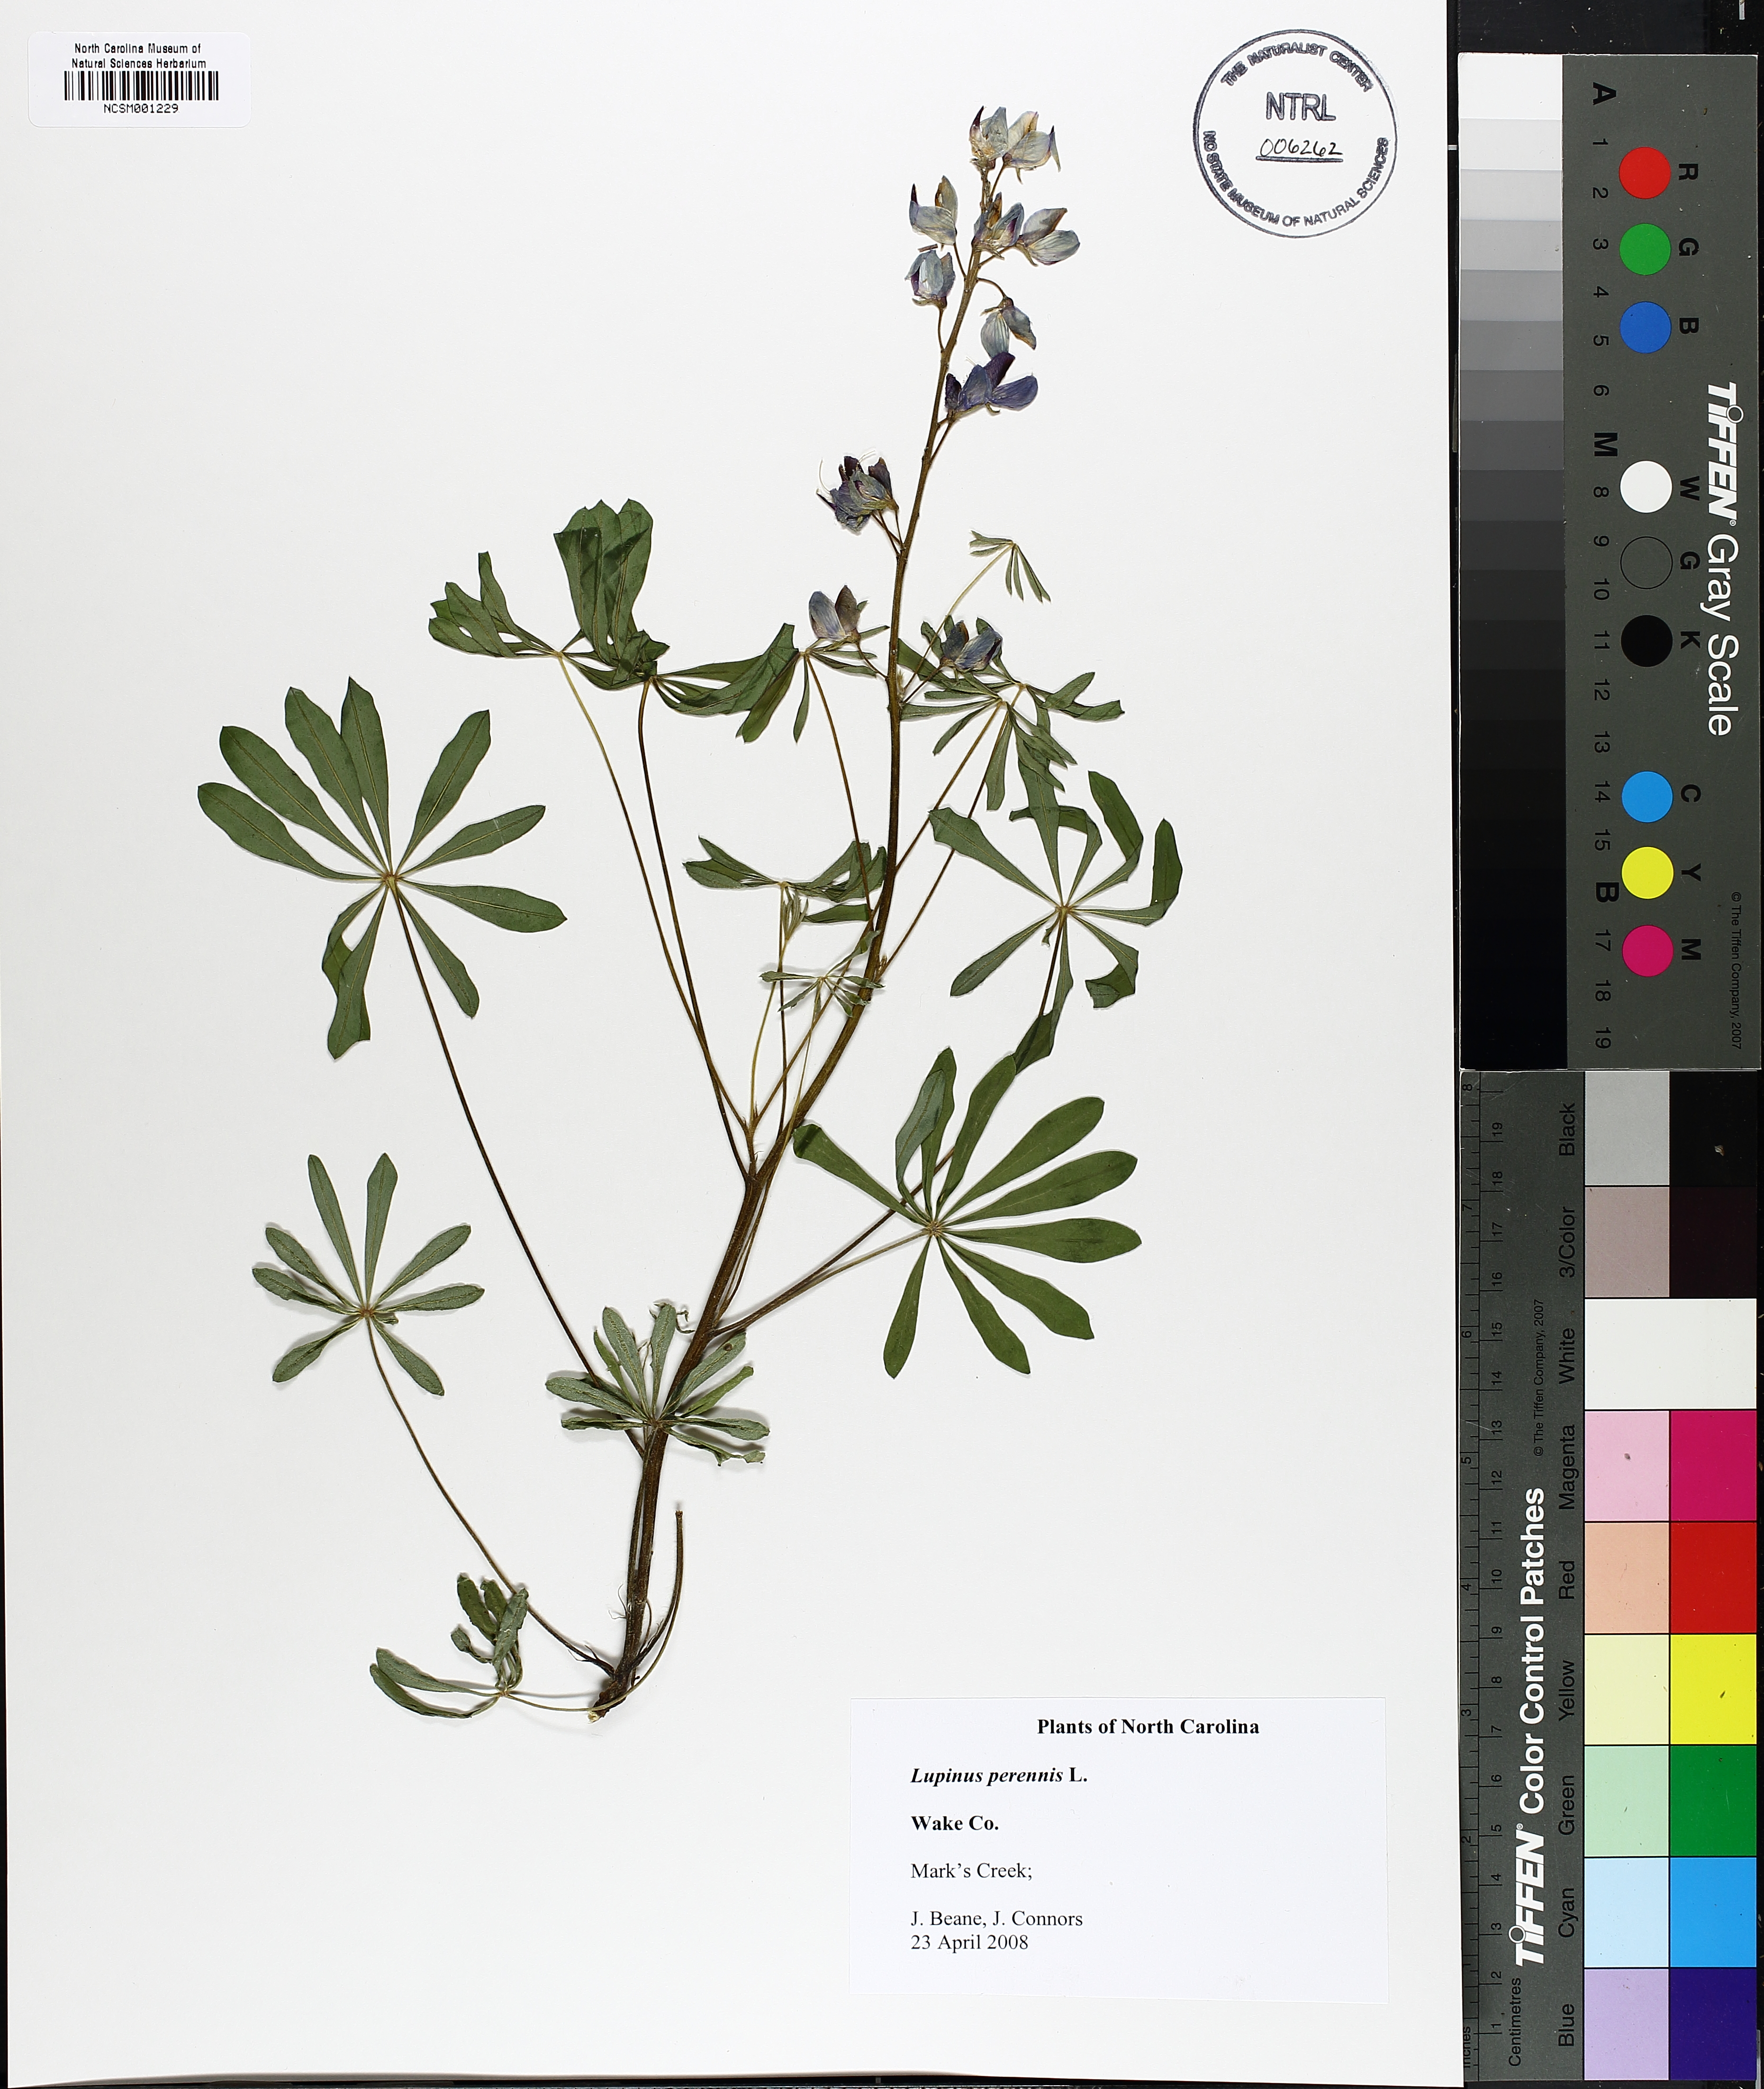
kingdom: Plantae
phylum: Tracheophyta
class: Magnoliopsida
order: Fabales
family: Fabaceae
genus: Lupinus
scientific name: Lupinus perennis
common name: Sundial lupine
